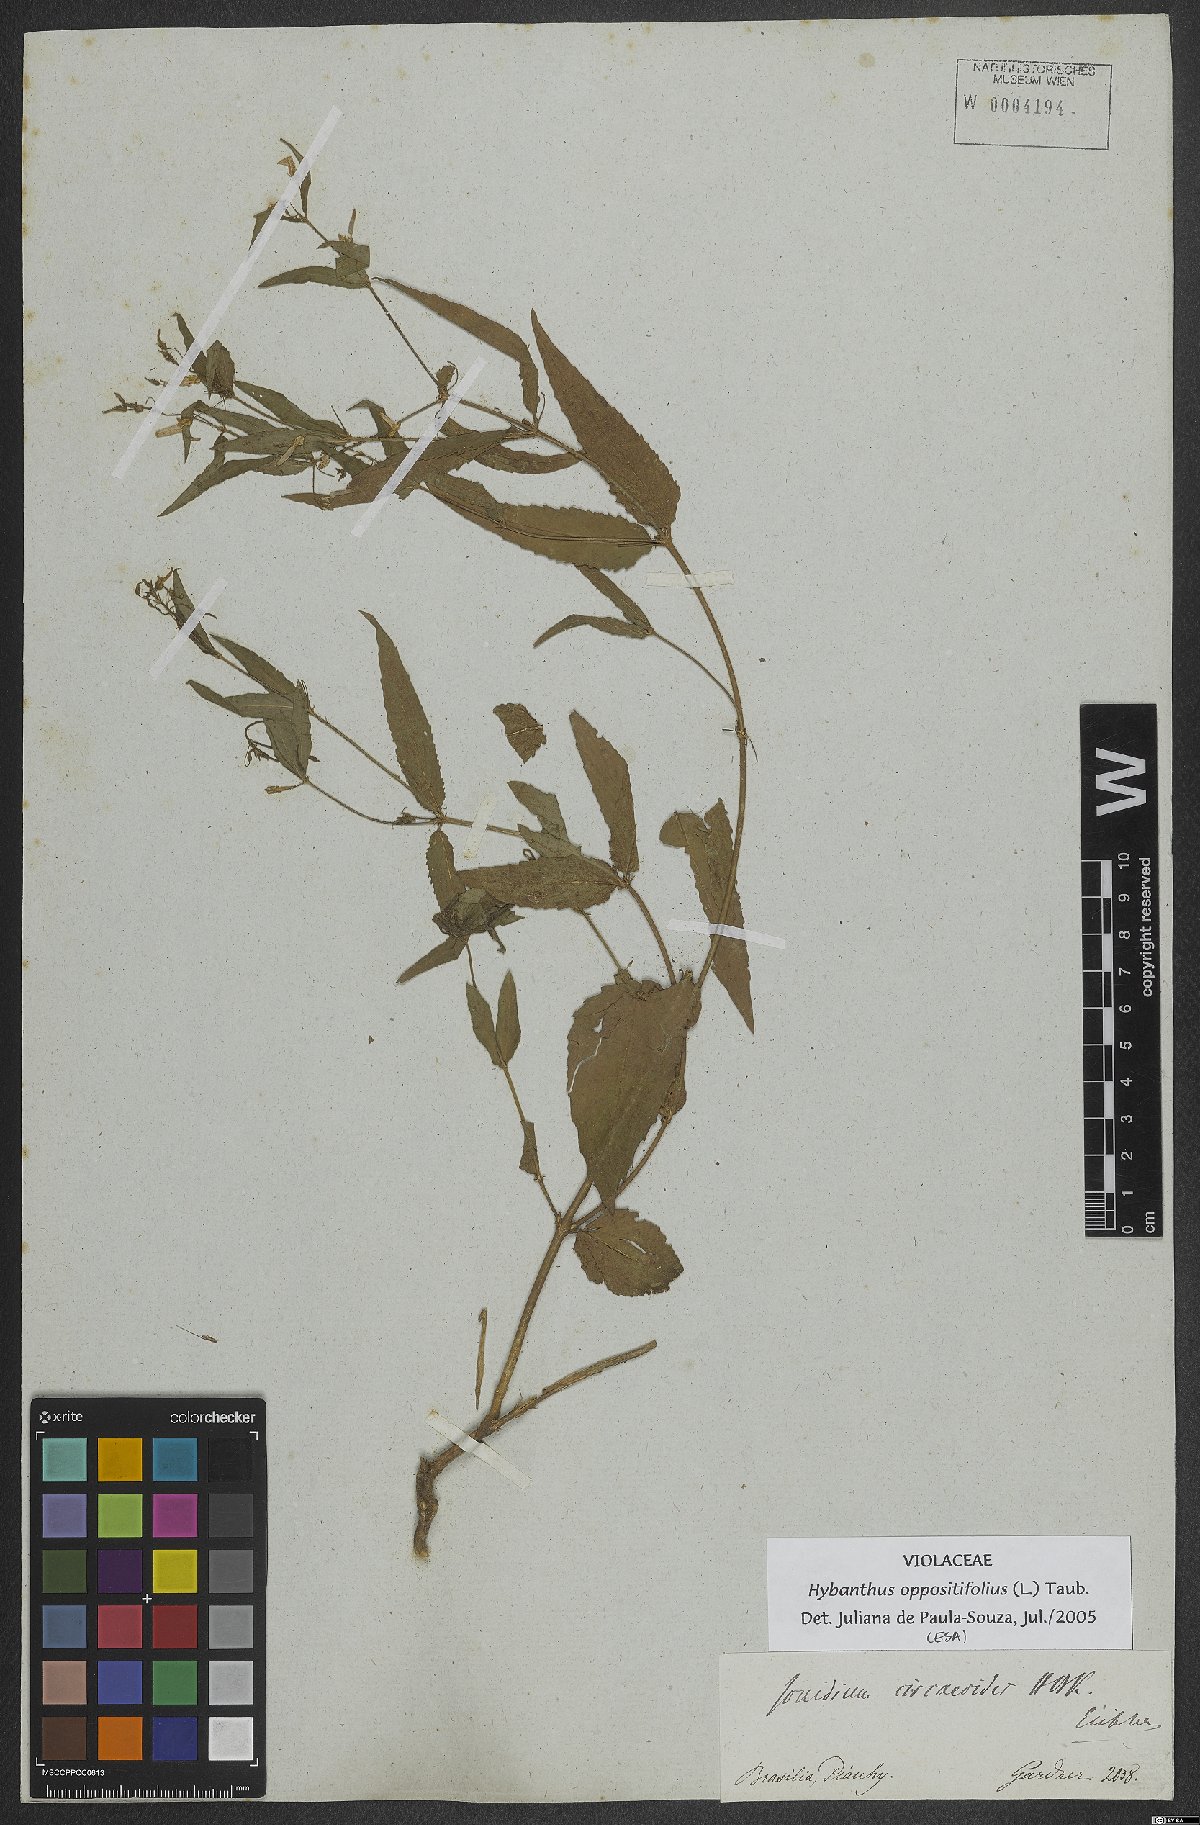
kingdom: Plantae
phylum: Tracheophyta
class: Magnoliopsida
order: Malpighiales
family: Violaceae
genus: Pombalia
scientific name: Pombalia oppositifolia
